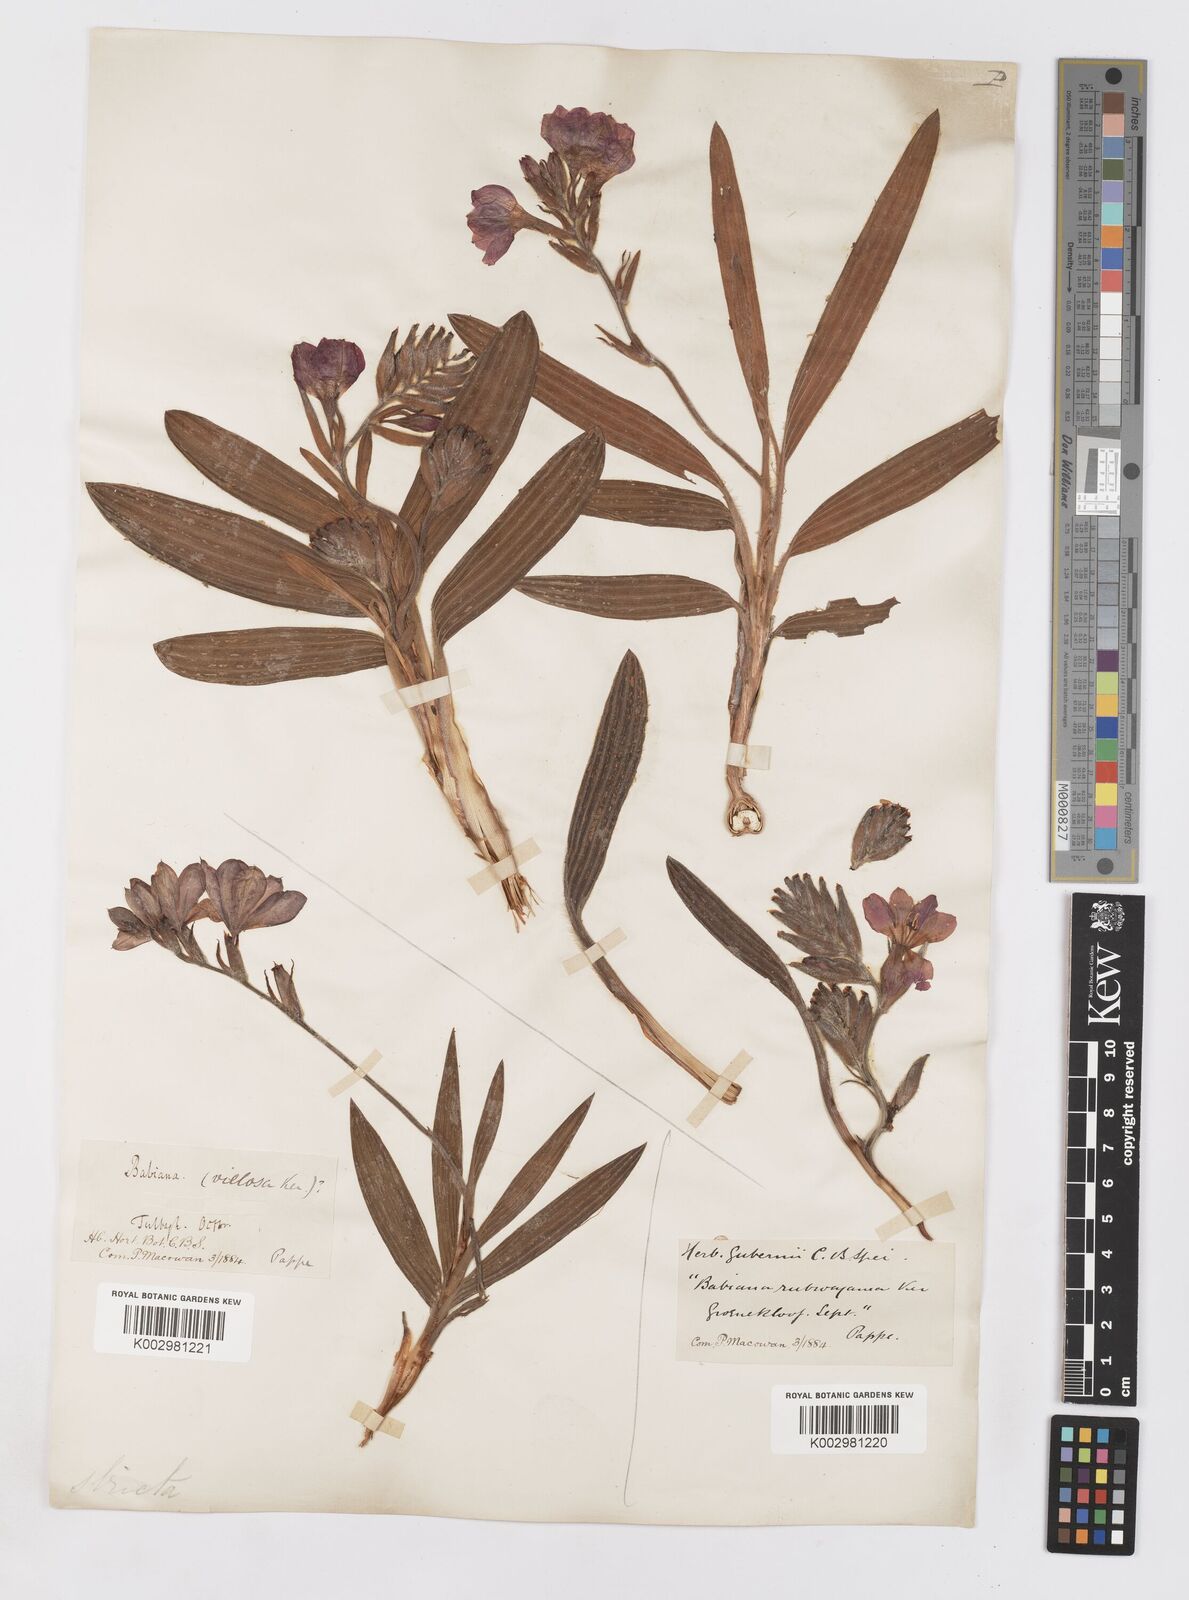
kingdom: Plantae
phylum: Tracheophyta
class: Liliopsida
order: Asparagales
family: Iridaceae
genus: Babiana
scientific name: Babiana rubrocyanea
